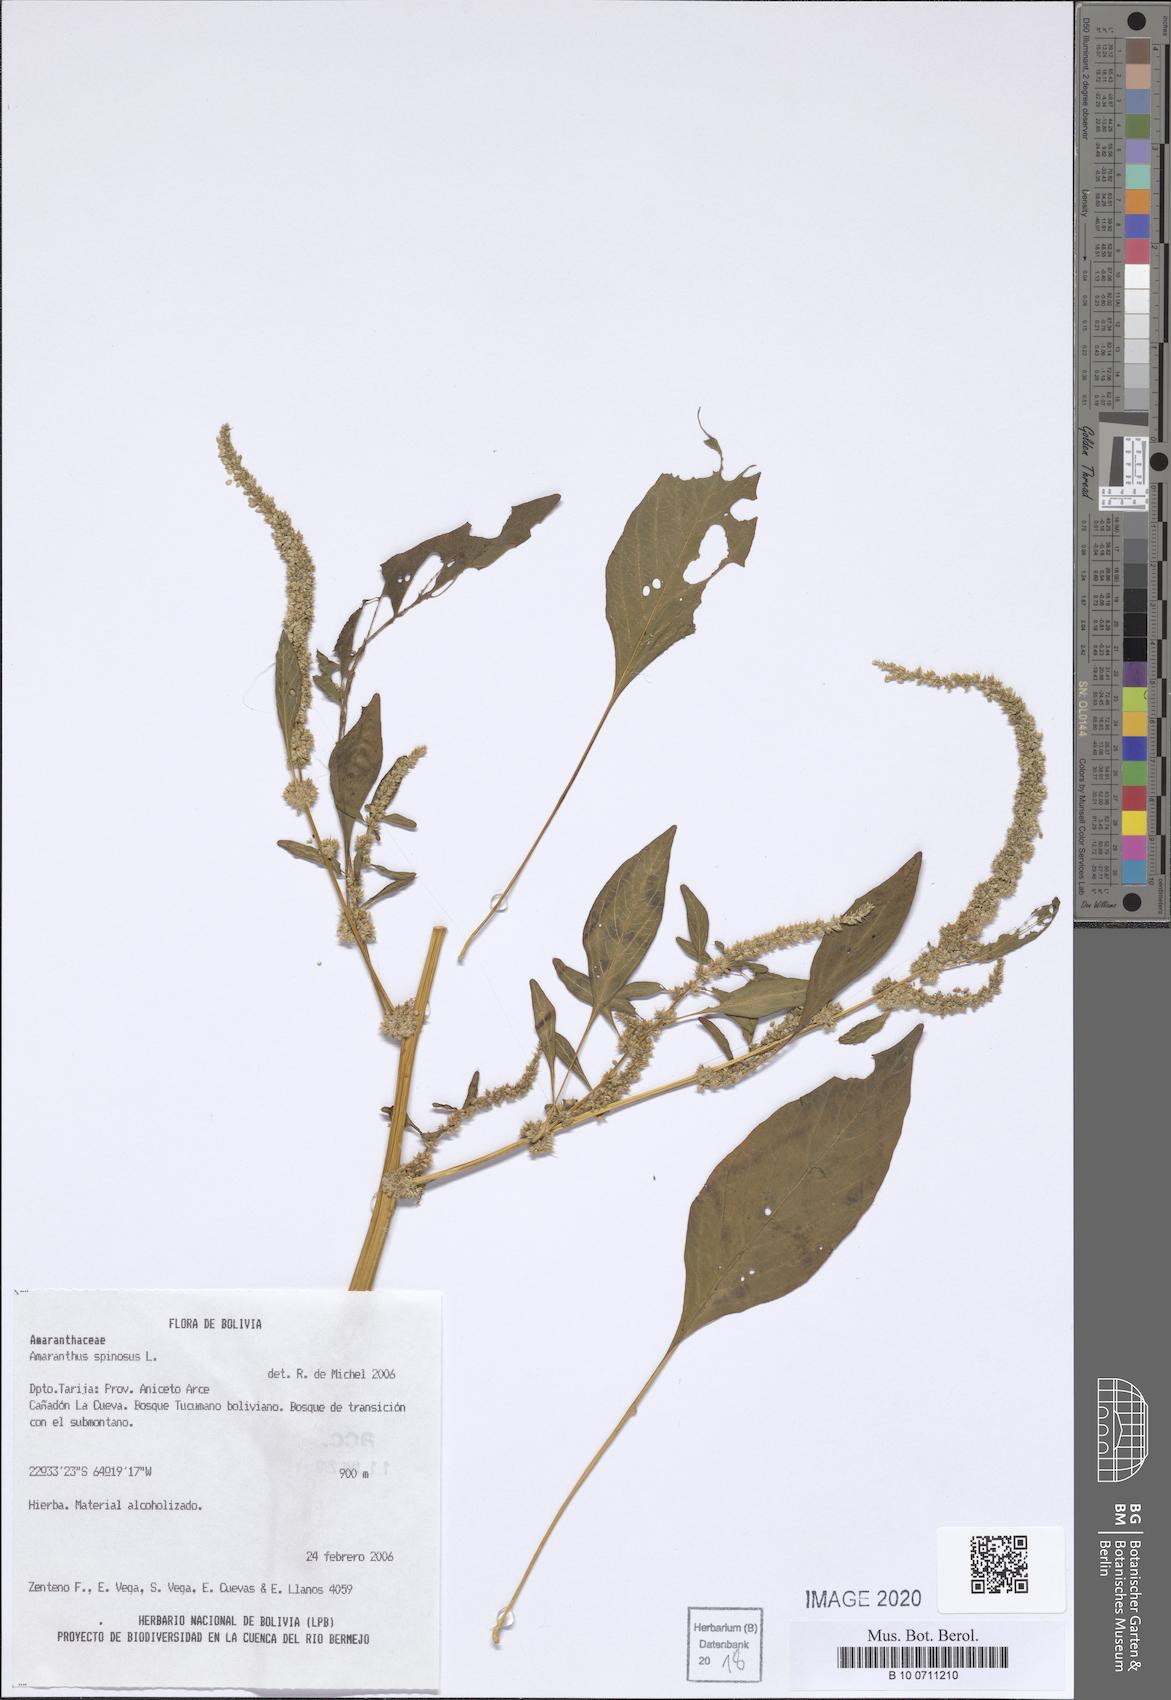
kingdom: Plantae
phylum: Tracheophyta
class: Magnoliopsida
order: Caryophyllales
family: Amaranthaceae
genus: Amaranthus
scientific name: Amaranthus spinosus
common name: Spiny amaranth
